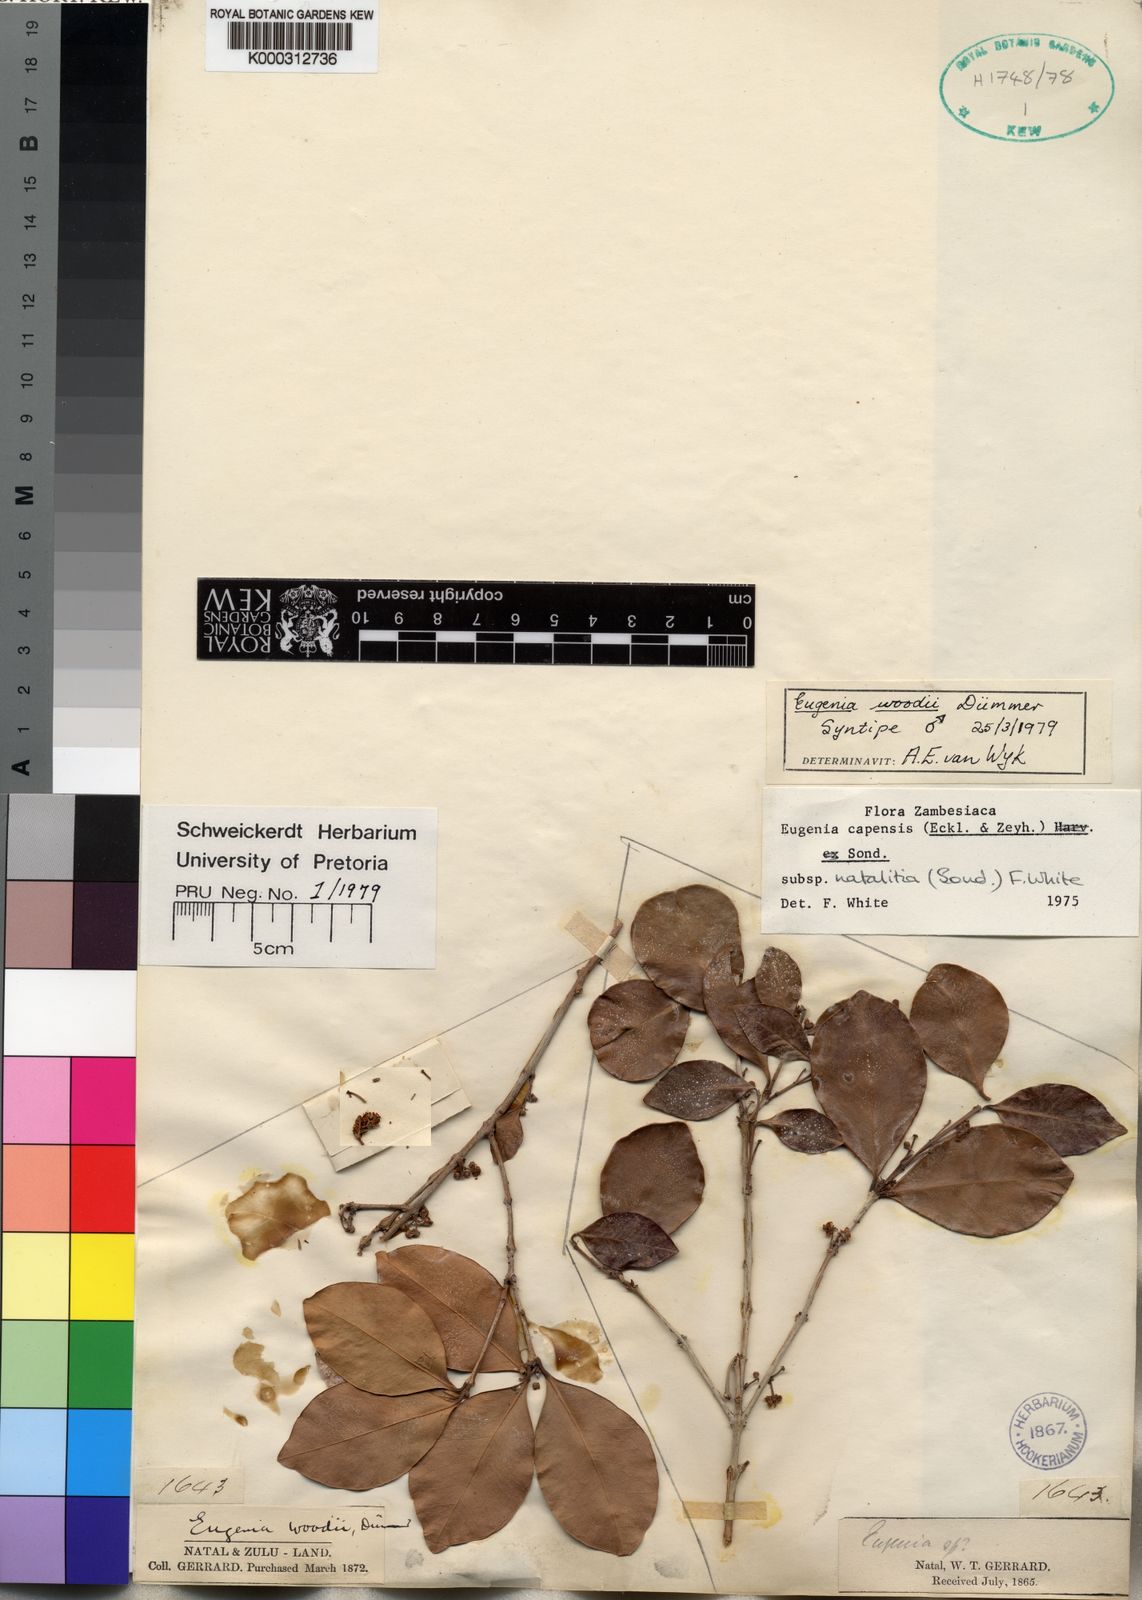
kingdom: Plantae
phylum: Tracheophyta
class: Magnoliopsida
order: Myrtales
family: Myrtaceae
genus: Eugenia
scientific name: Eugenia natalitia
